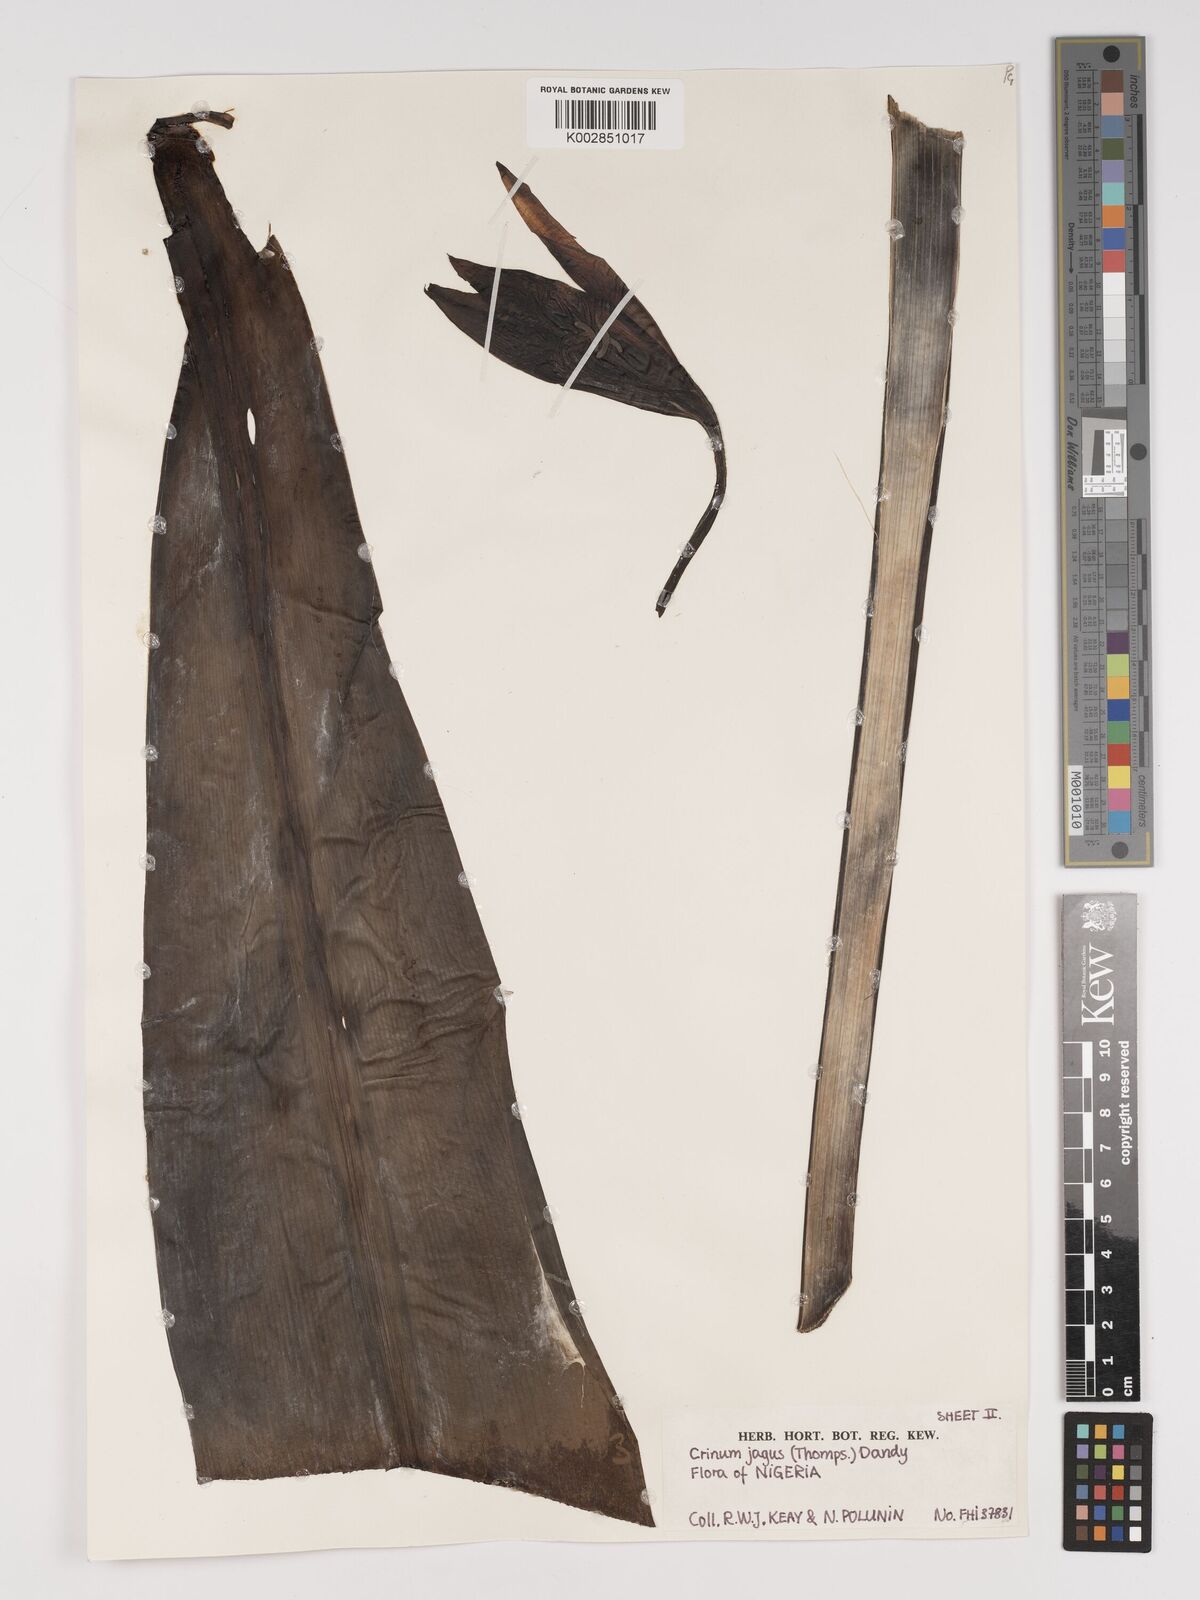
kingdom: Plantae
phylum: Tracheophyta
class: Liliopsida
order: Asparagales
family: Amaryllidaceae
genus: Crinum
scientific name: Crinum glaucum
